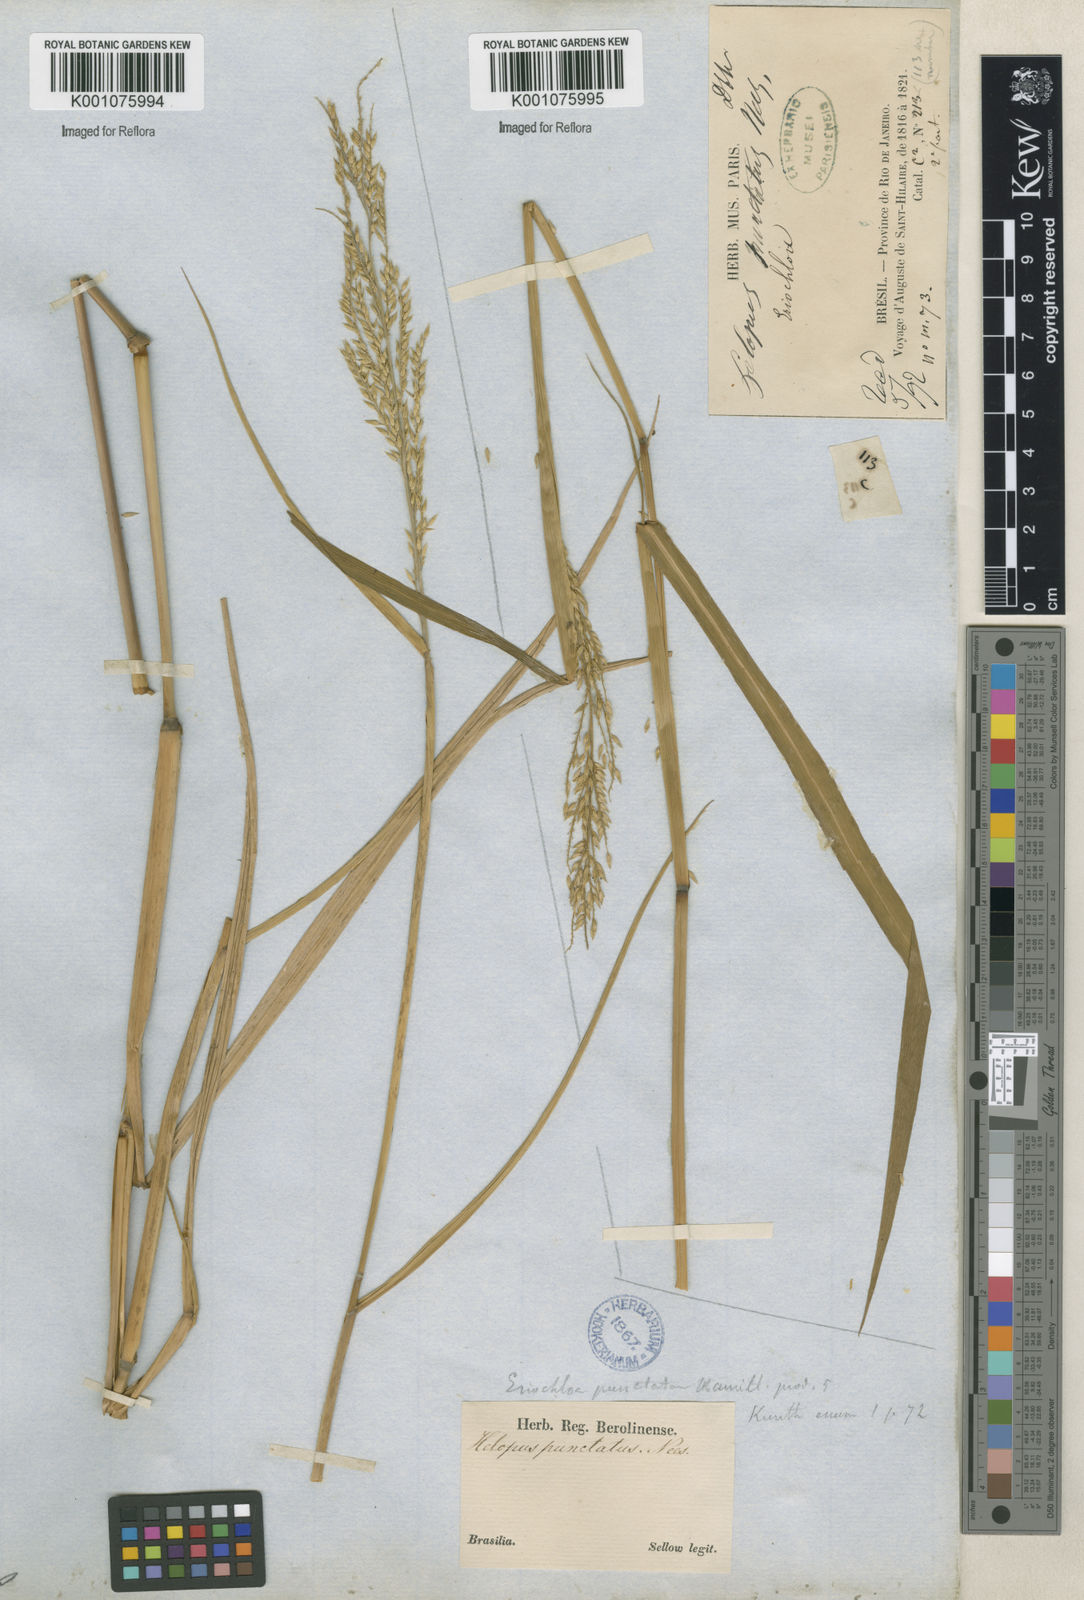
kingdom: Plantae
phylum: Tracheophyta
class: Liliopsida
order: Poales
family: Poaceae
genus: Eriochloa
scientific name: Eriochloa punctata
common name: Louisiana cupgrass
